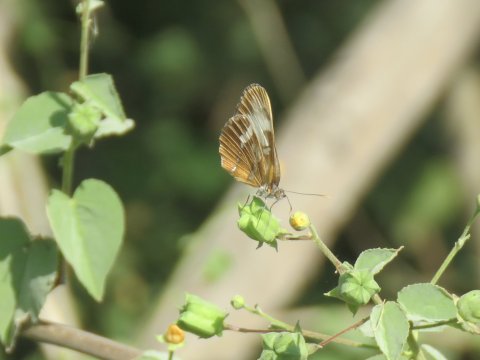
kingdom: Animalia
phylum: Arthropoda
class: Insecta
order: Lepidoptera
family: Nymphalidae
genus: Mestra
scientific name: Mestra amymone
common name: Common Mestra
